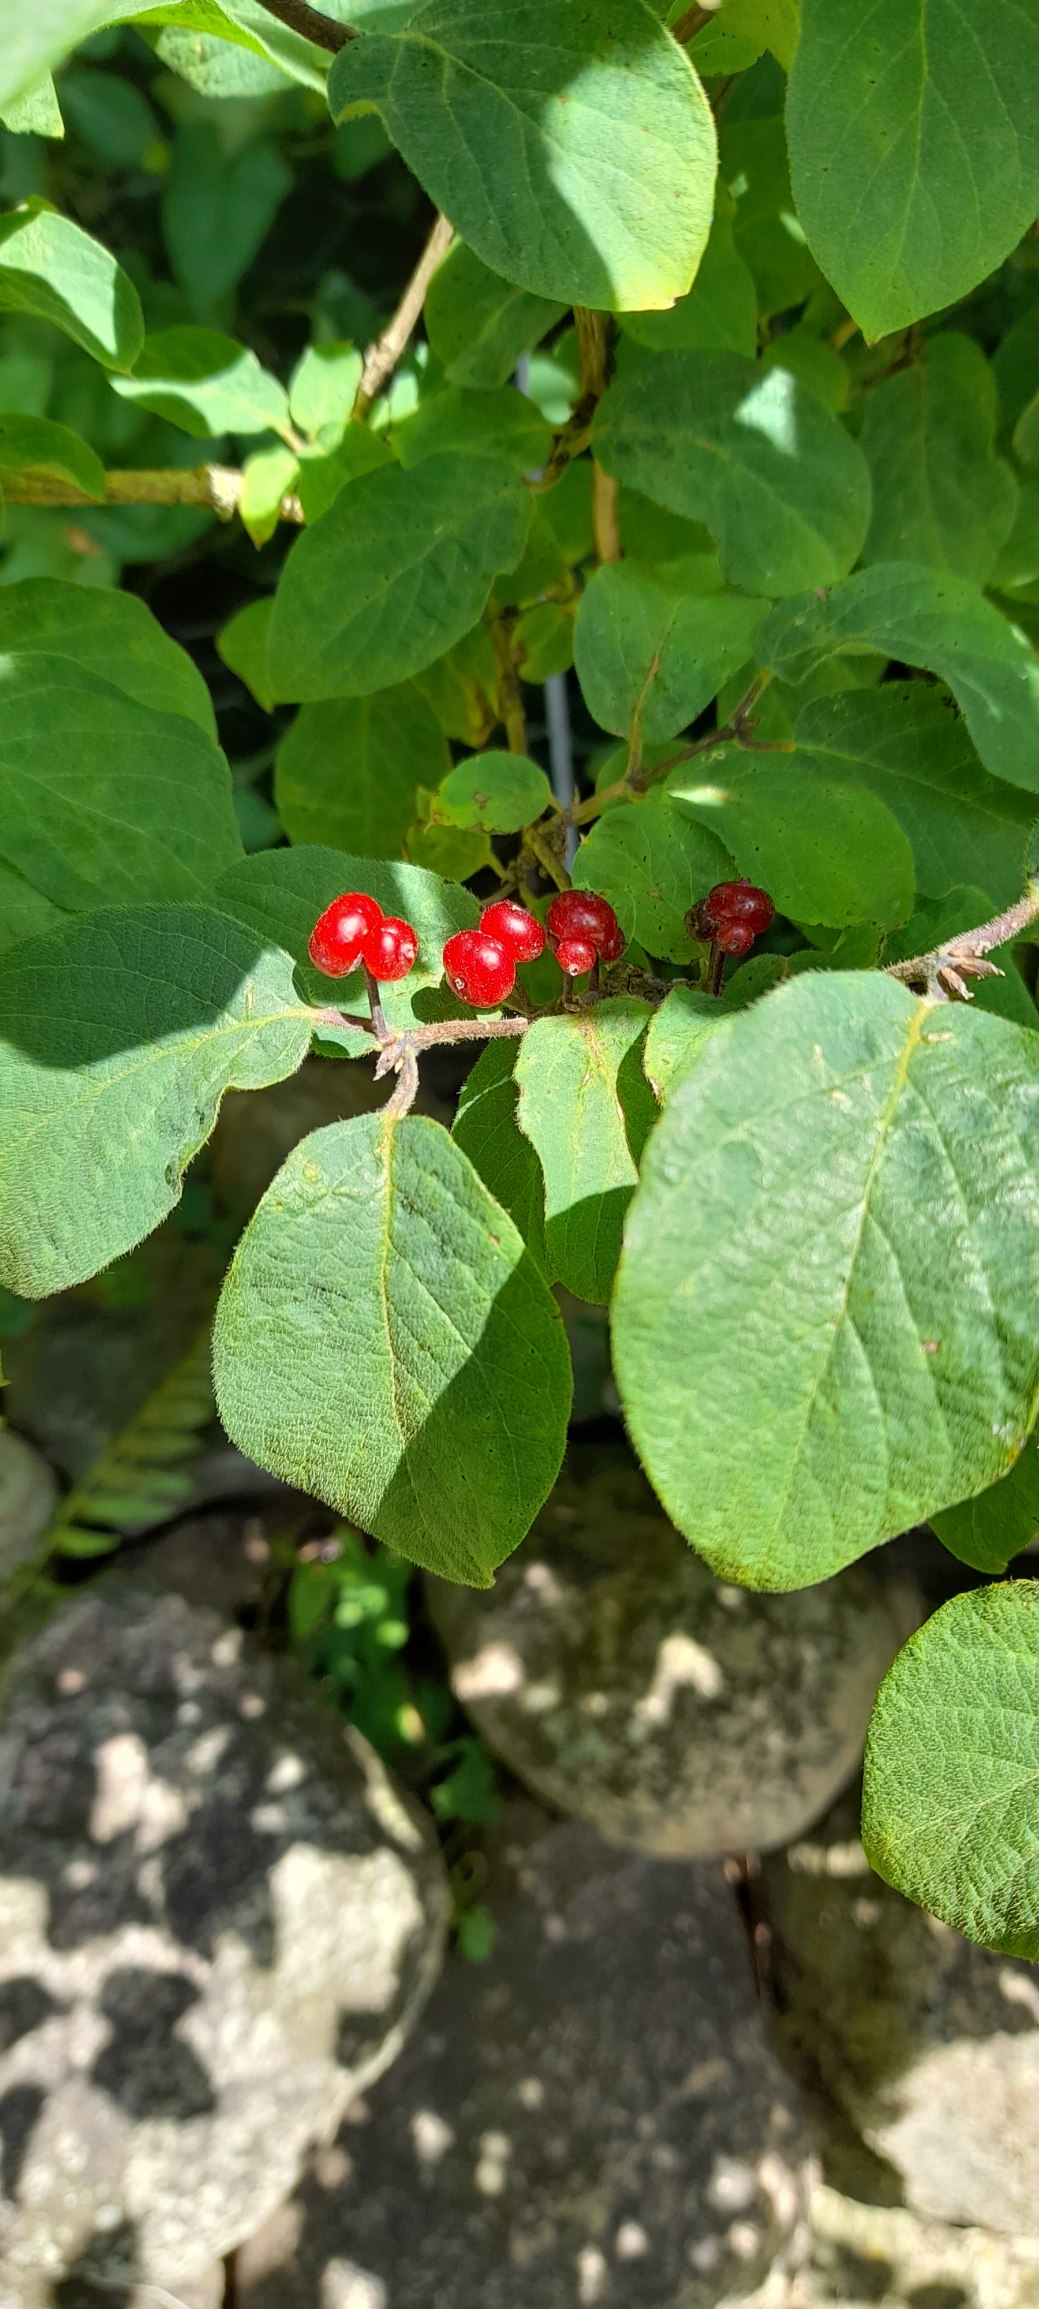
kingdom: Plantae
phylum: Tracheophyta
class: Magnoliopsida
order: Dipsacales
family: Caprifoliaceae
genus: Lonicera
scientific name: Lonicera xylosteum
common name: Dunet gedeblad
